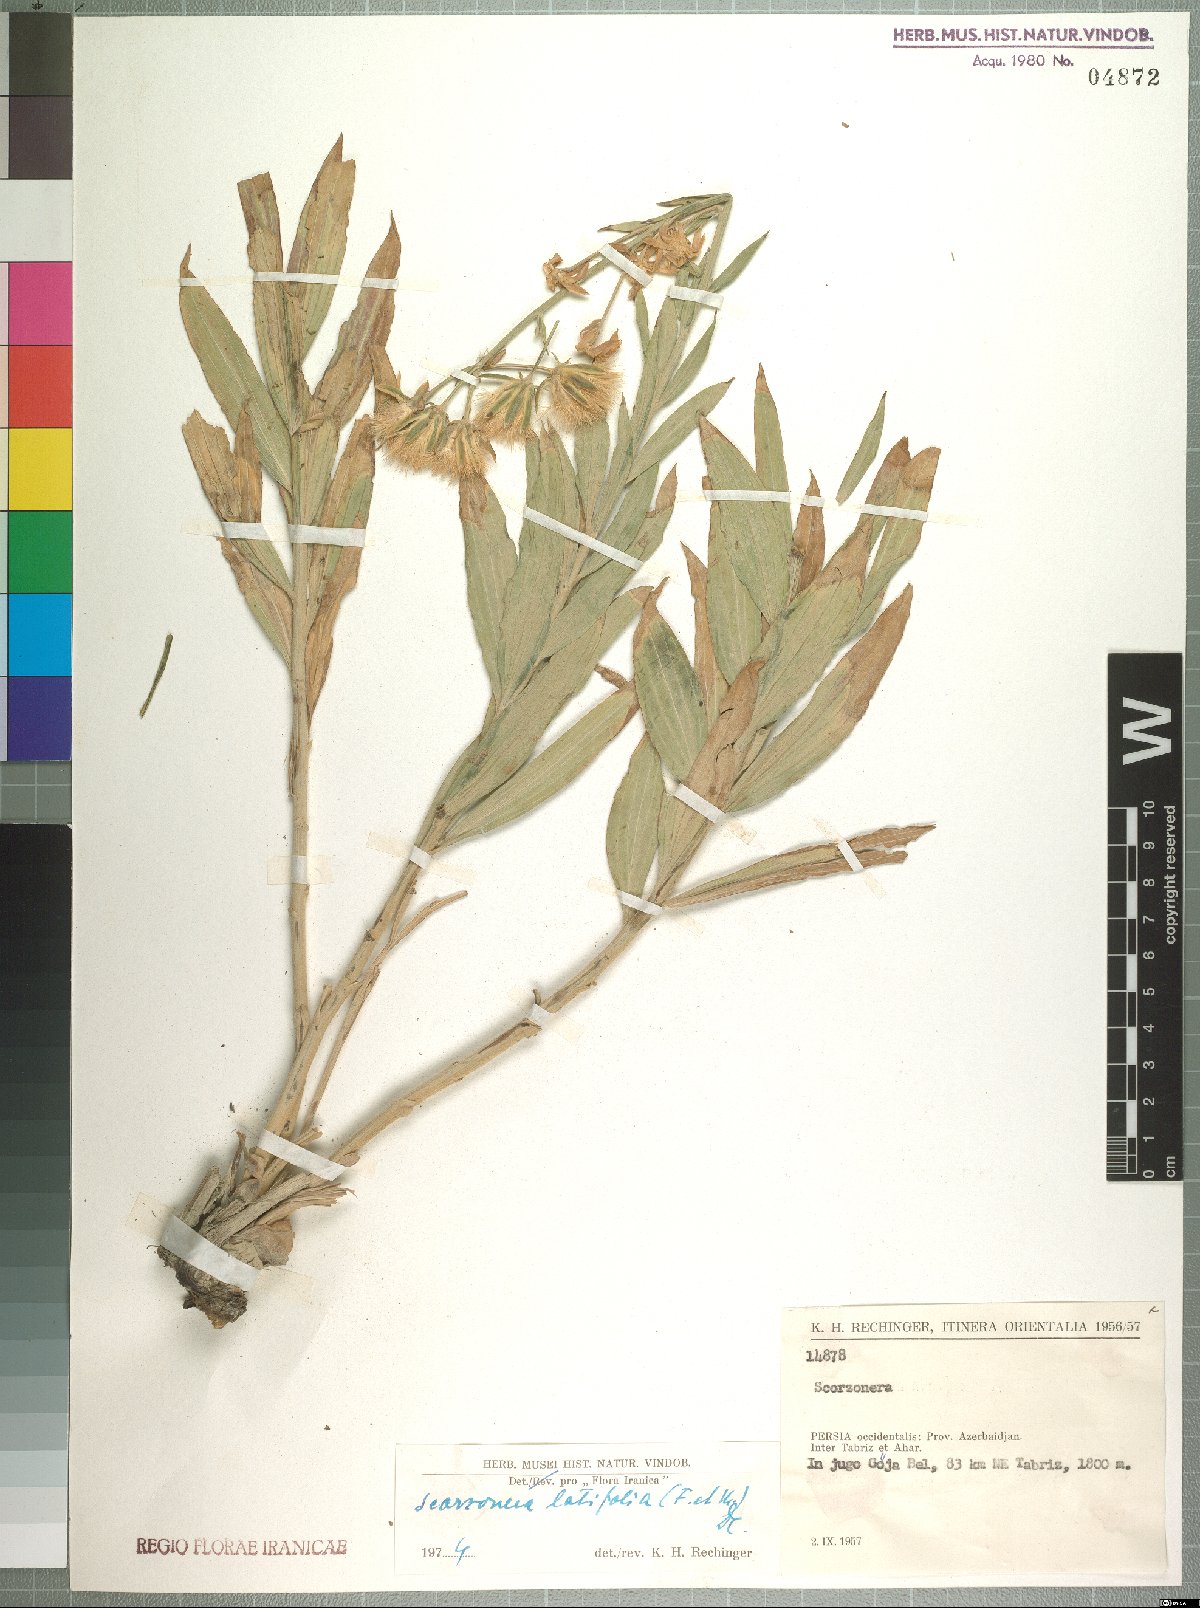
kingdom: Plantae
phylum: Tracheophyta
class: Magnoliopsida
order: Asterales
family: Asteraceae
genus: Guneria
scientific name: Guneria latifolia
